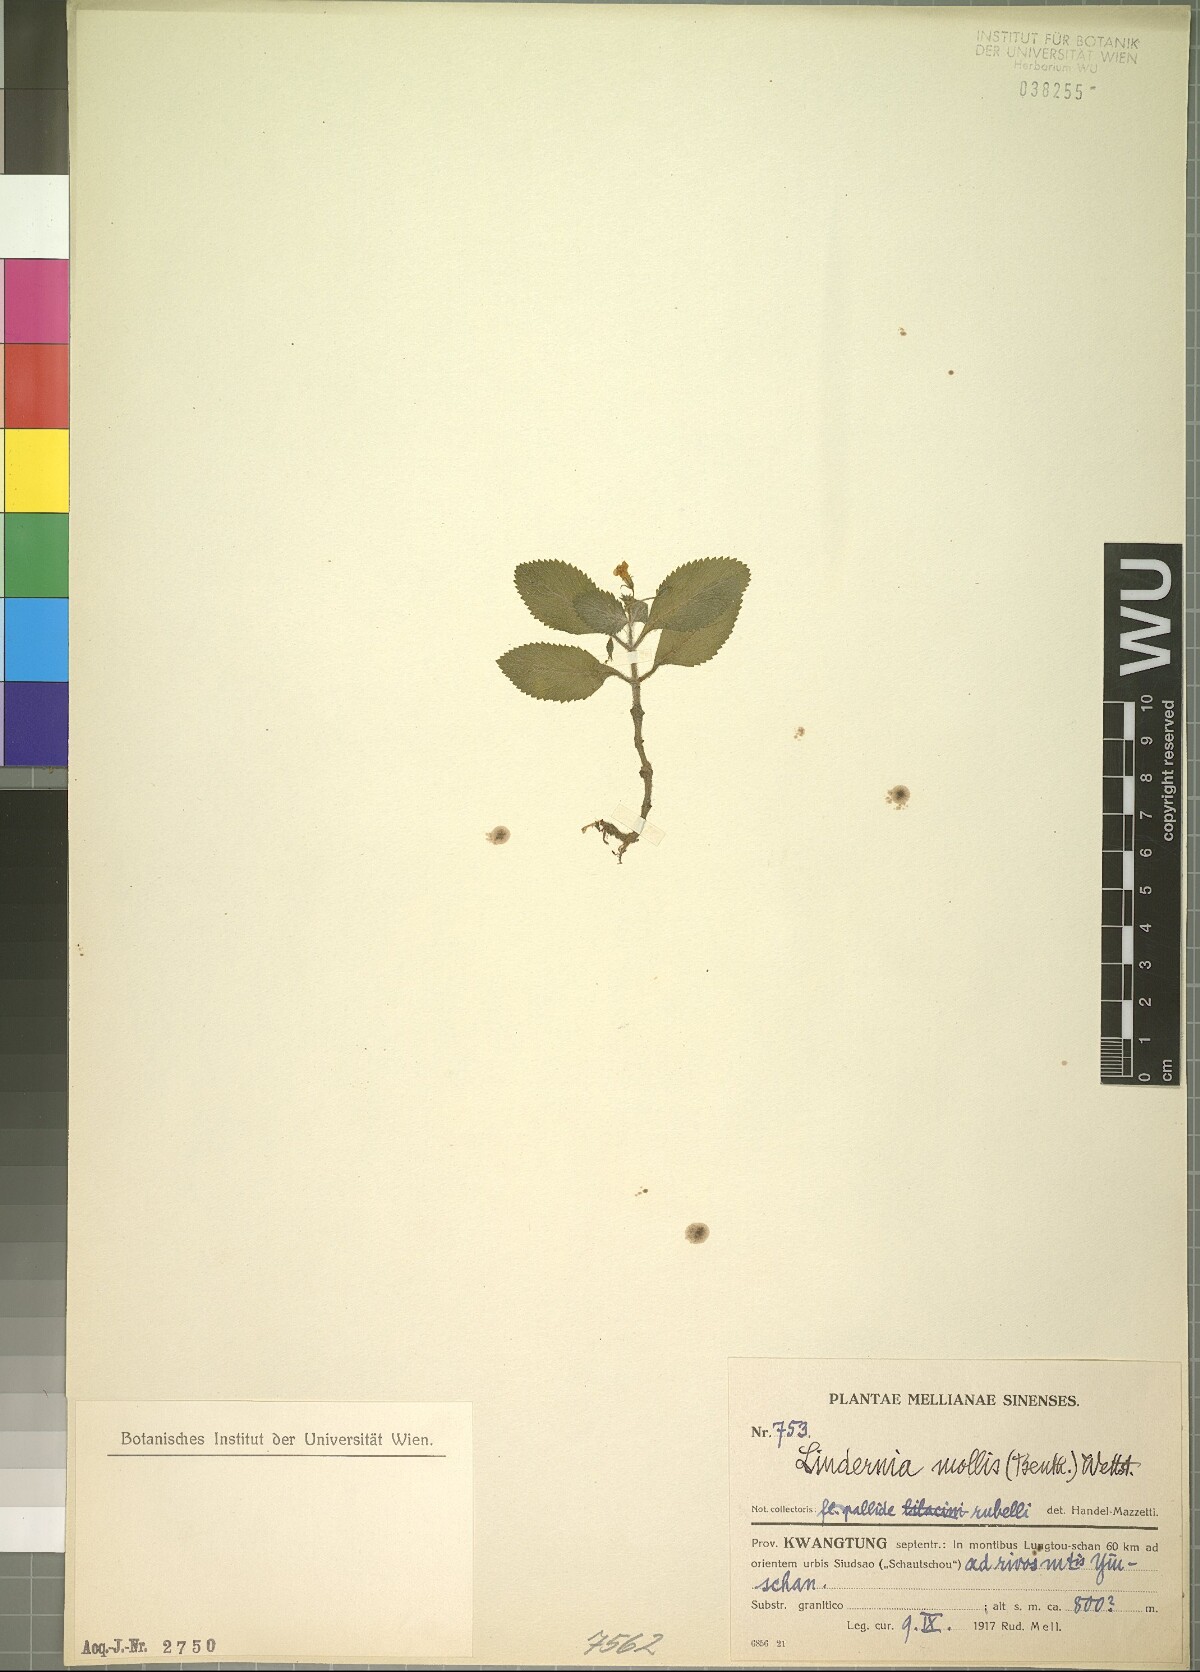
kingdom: Plantae
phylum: Tracheophyta
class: Magnoliopsida
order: Lamiales
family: Linderniaceae
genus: Vandellia
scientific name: Vandellia montana
